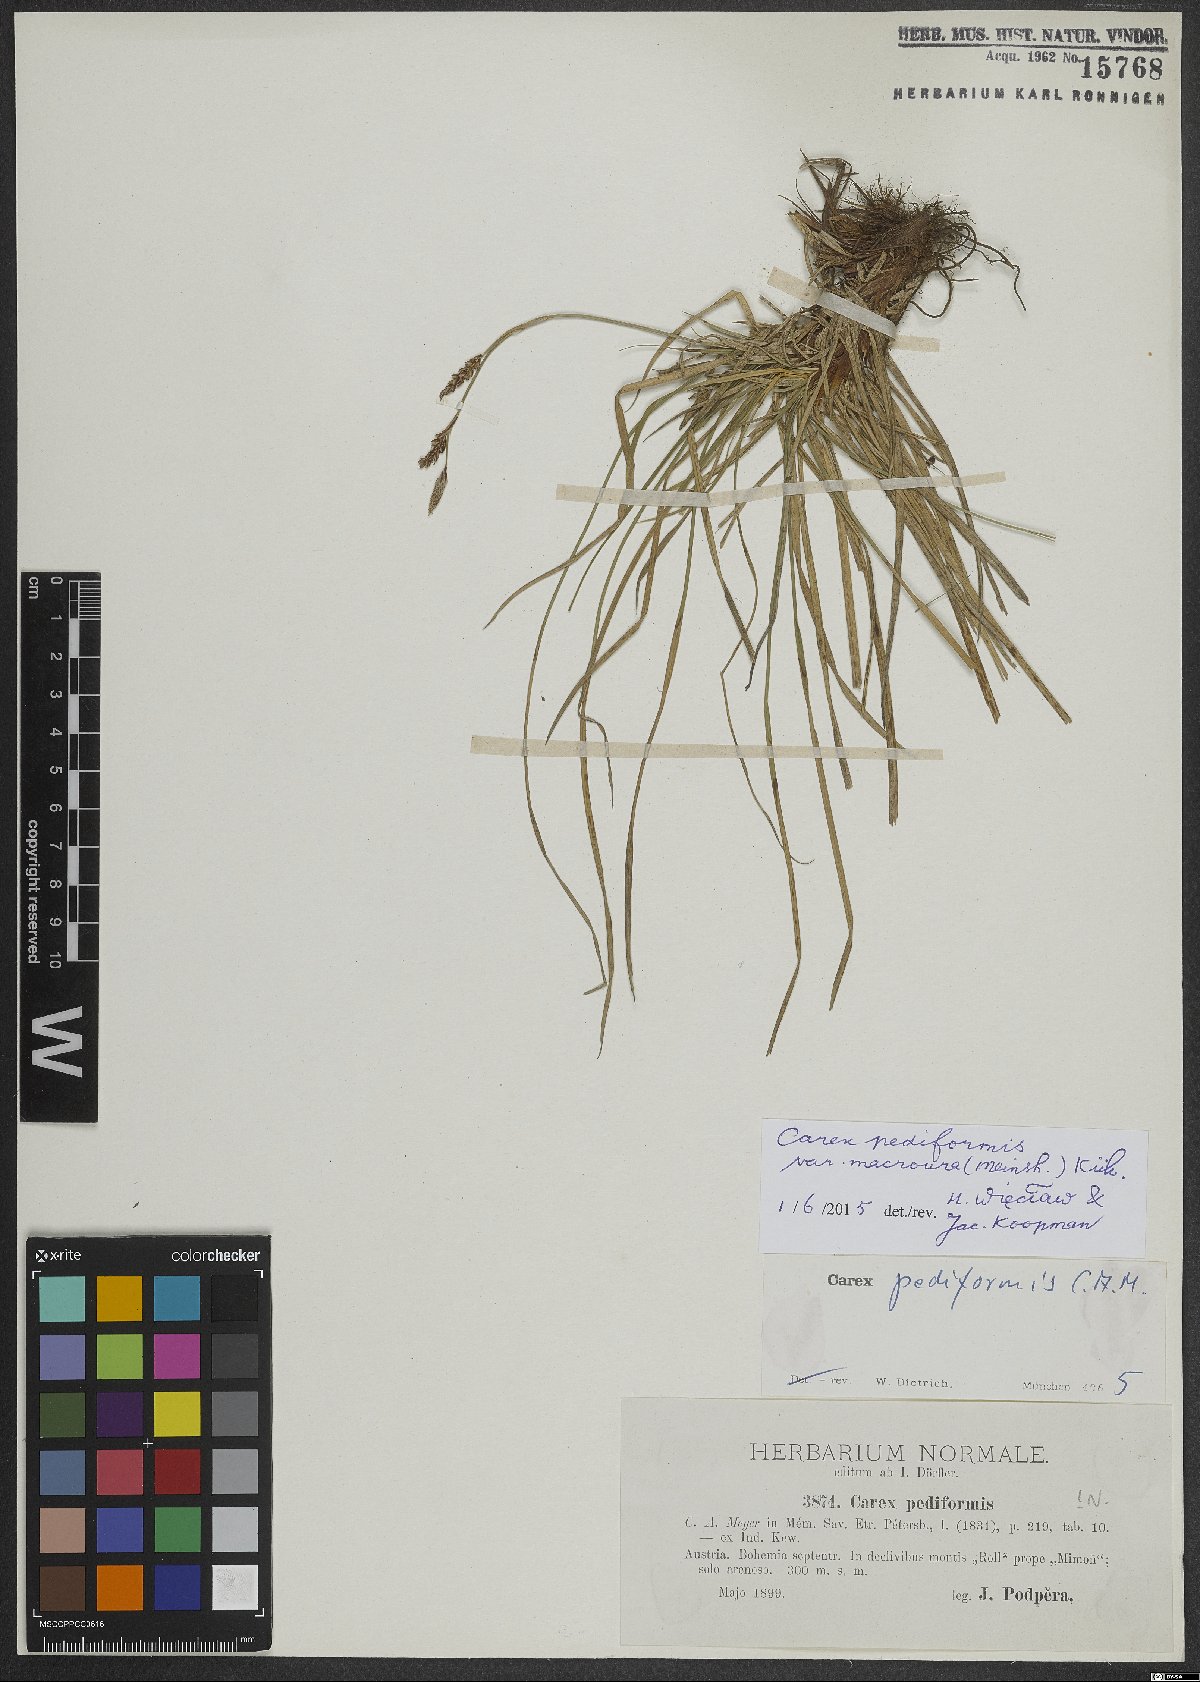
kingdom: Plantae
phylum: Tracheophyta
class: Liliopsida
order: Poales
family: Cyperaceae
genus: Carex
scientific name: Carex pediformis
